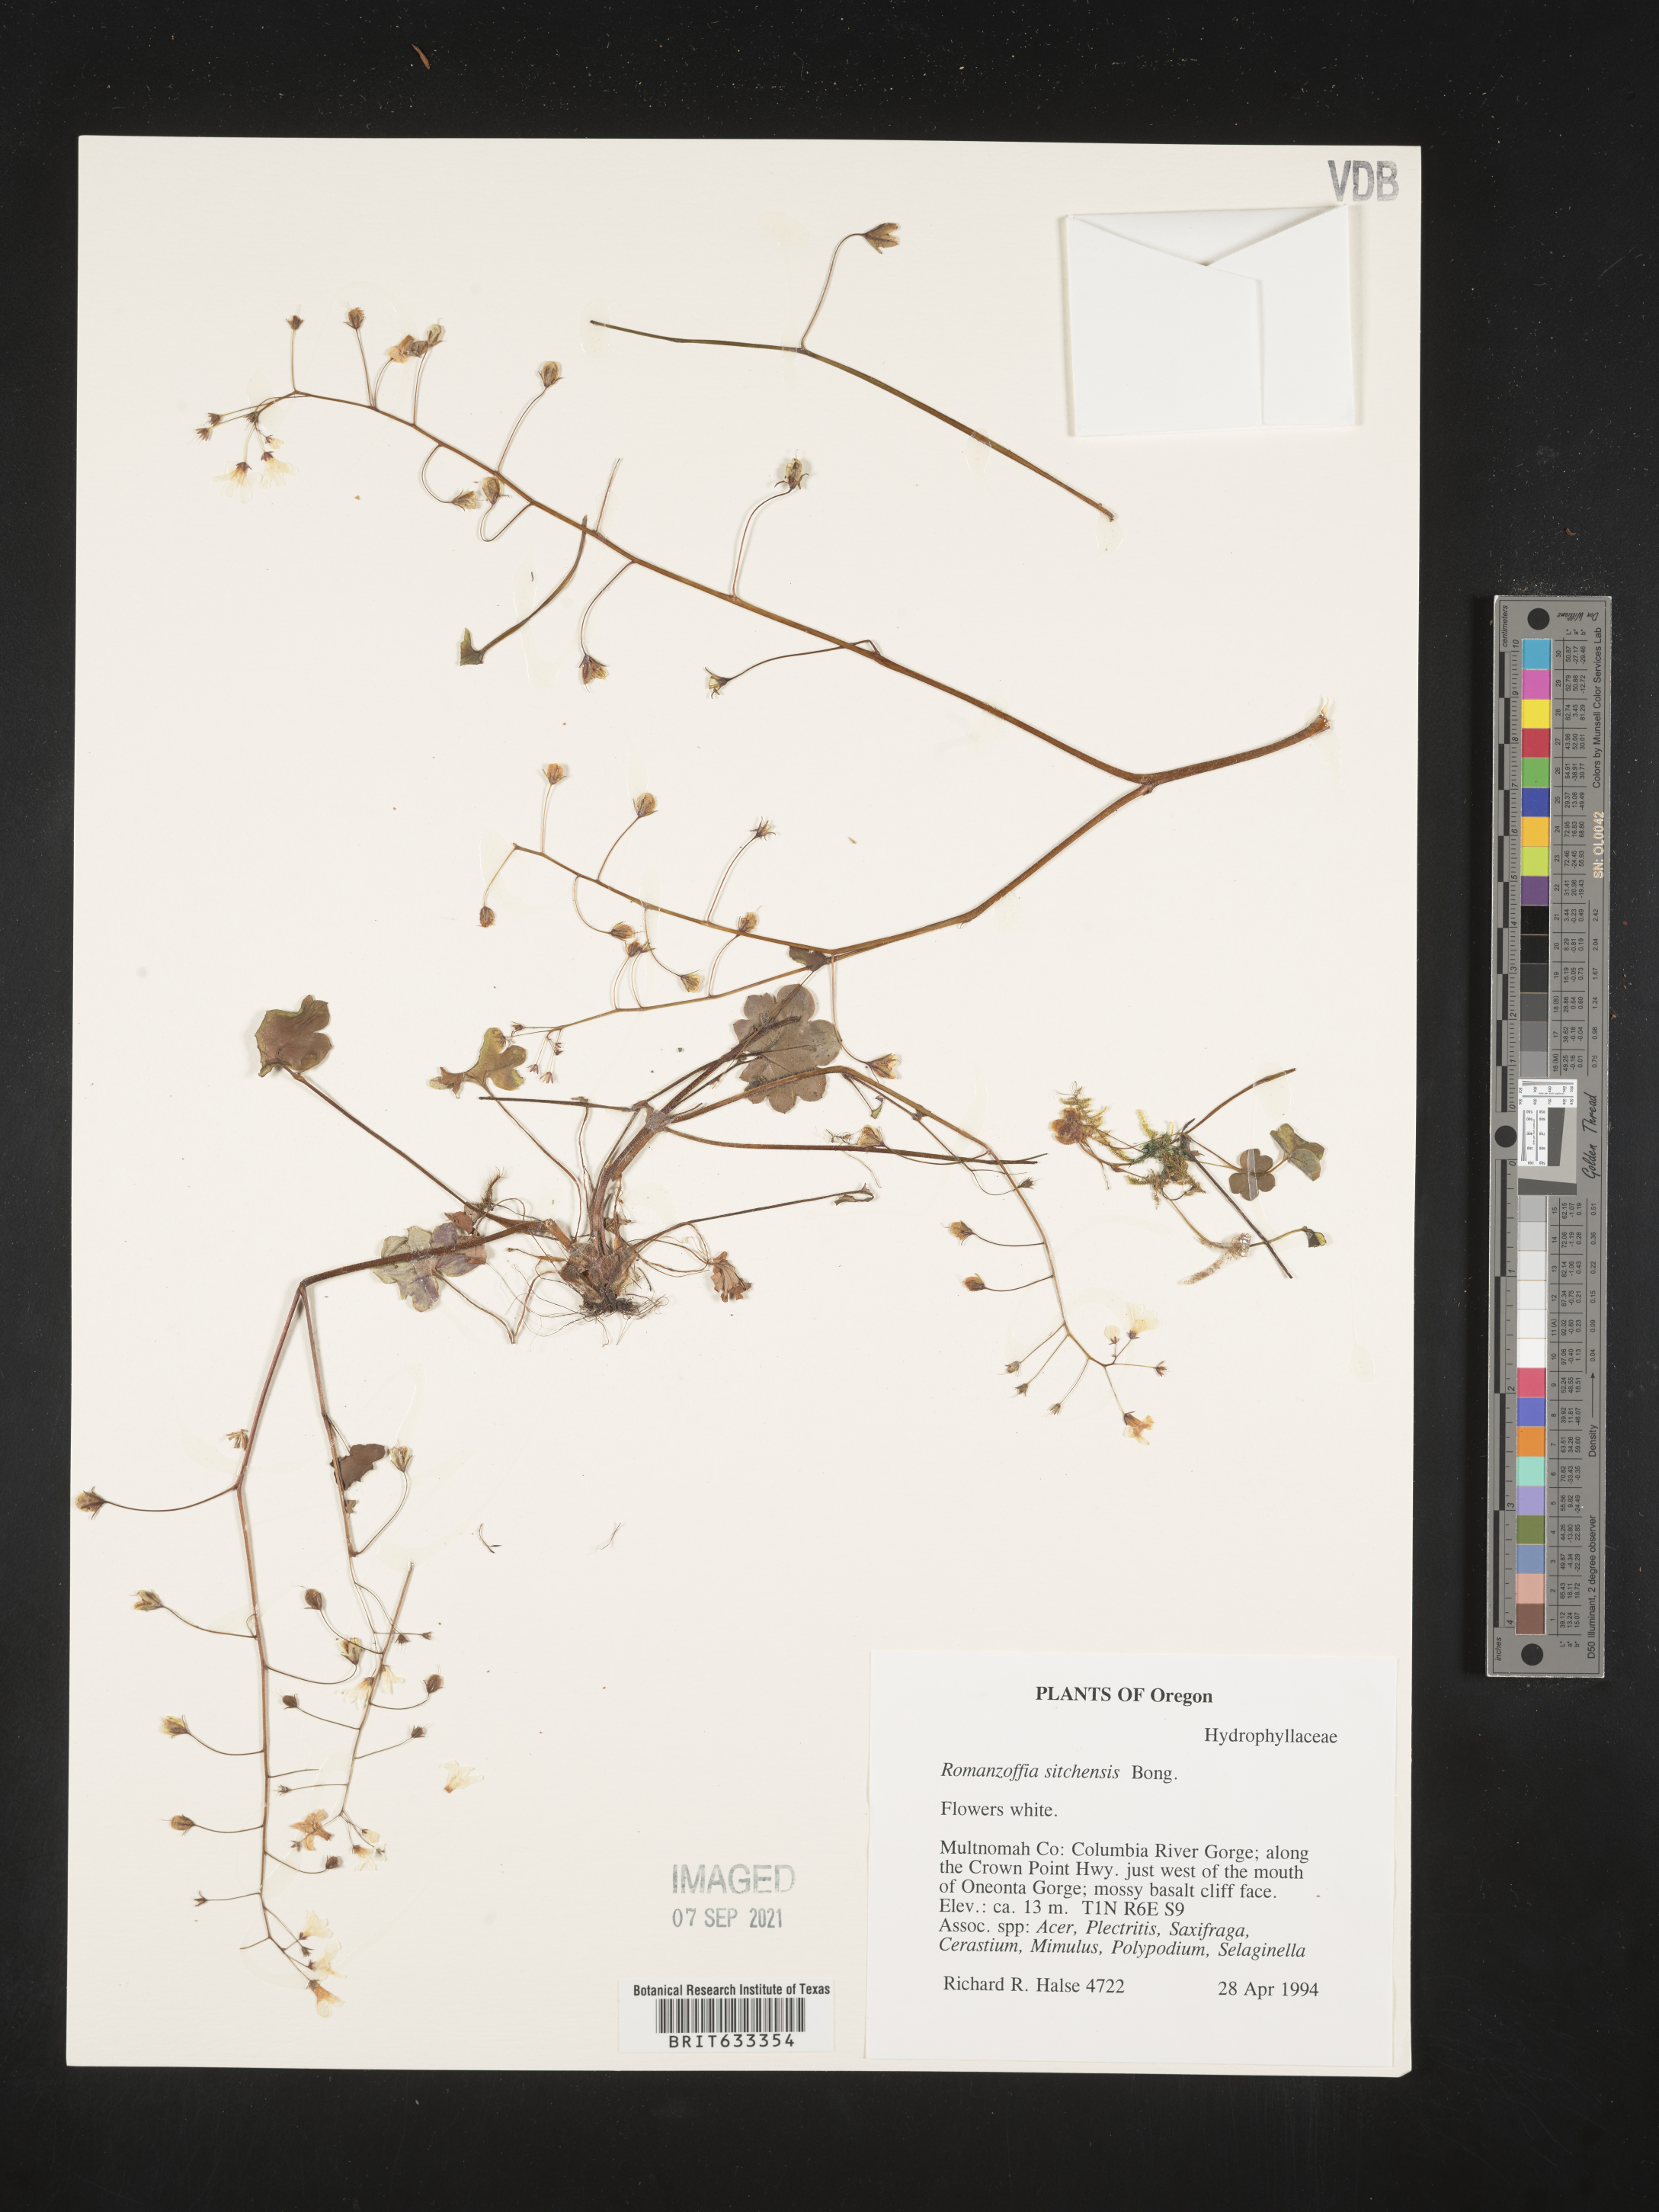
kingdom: Plantae
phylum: Tracheophyta
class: Magnoliopsida
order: Boraginales
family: Hydrophyllaceae
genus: Romanzoffia
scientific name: Romanzoffia sitchensis
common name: Sitka mistmaid
